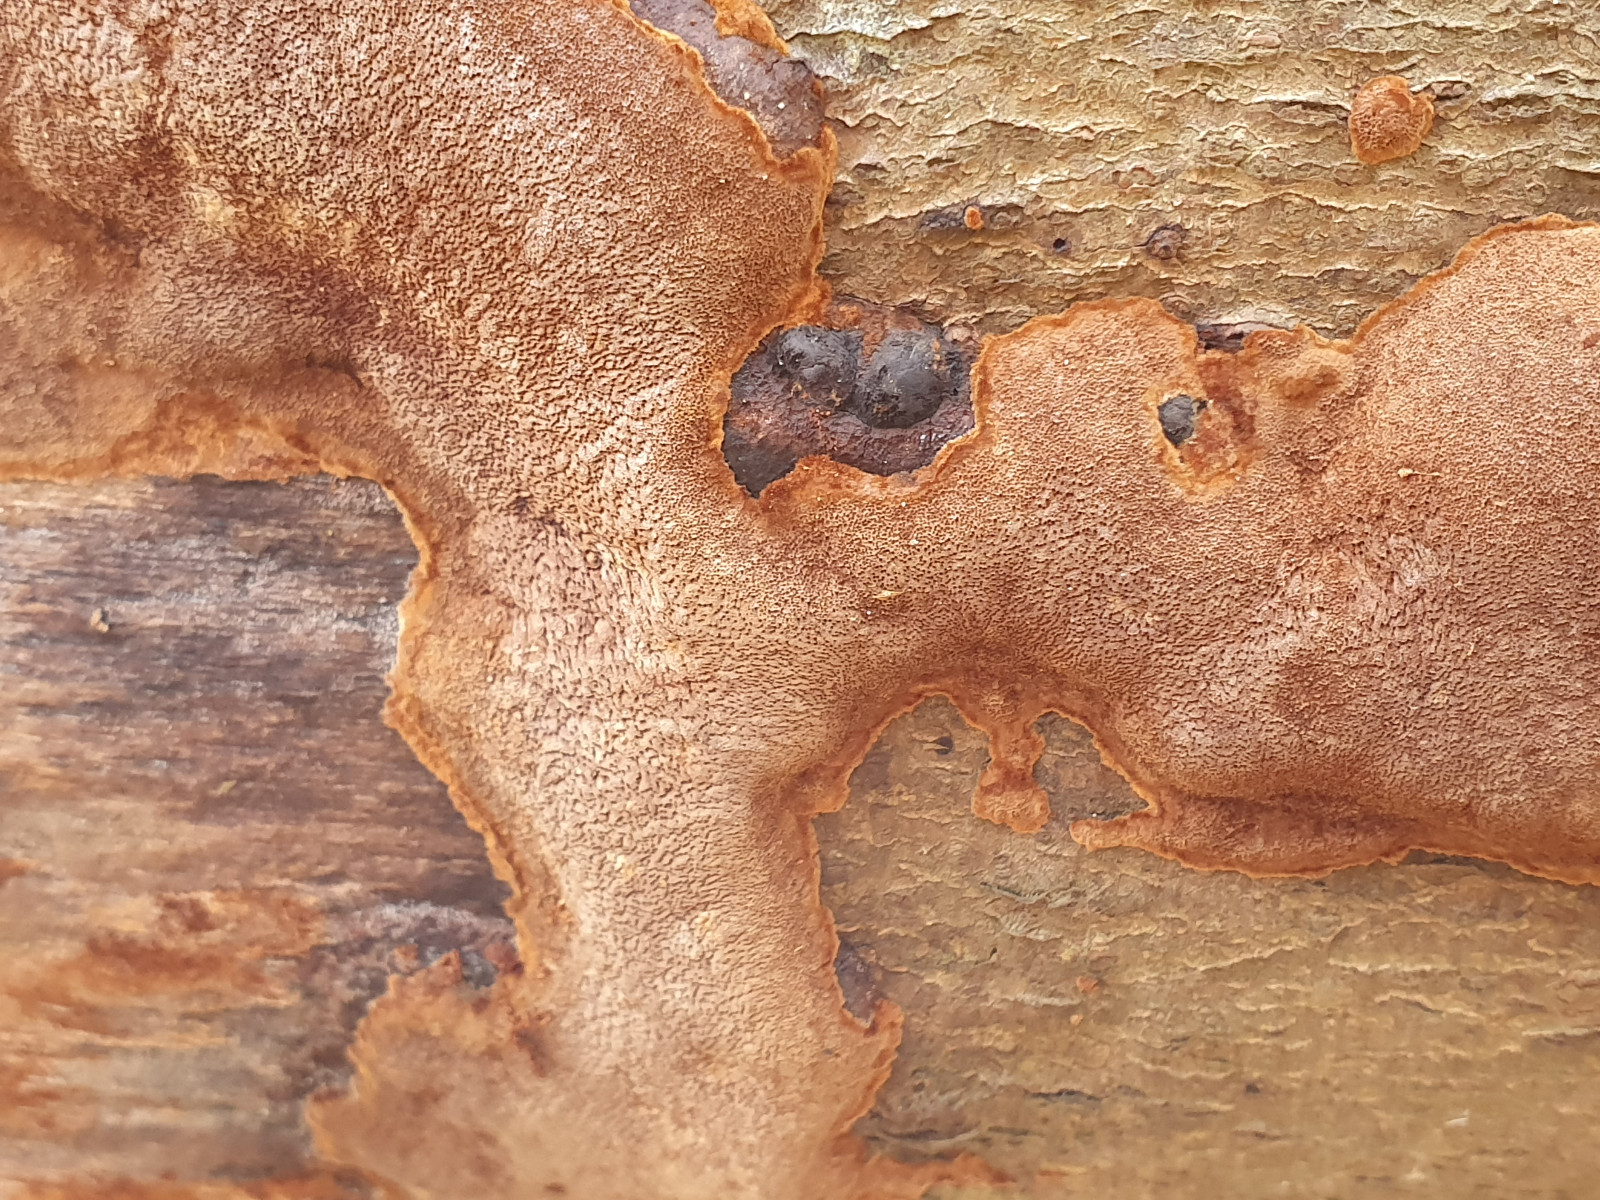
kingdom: Fungi
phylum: Basidiomycota
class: Agaricomycetes
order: Hymenochaetales
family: Hymenochaetaceae
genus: Fuscoporia
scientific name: Fuscoporia
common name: Ildporesvamp
